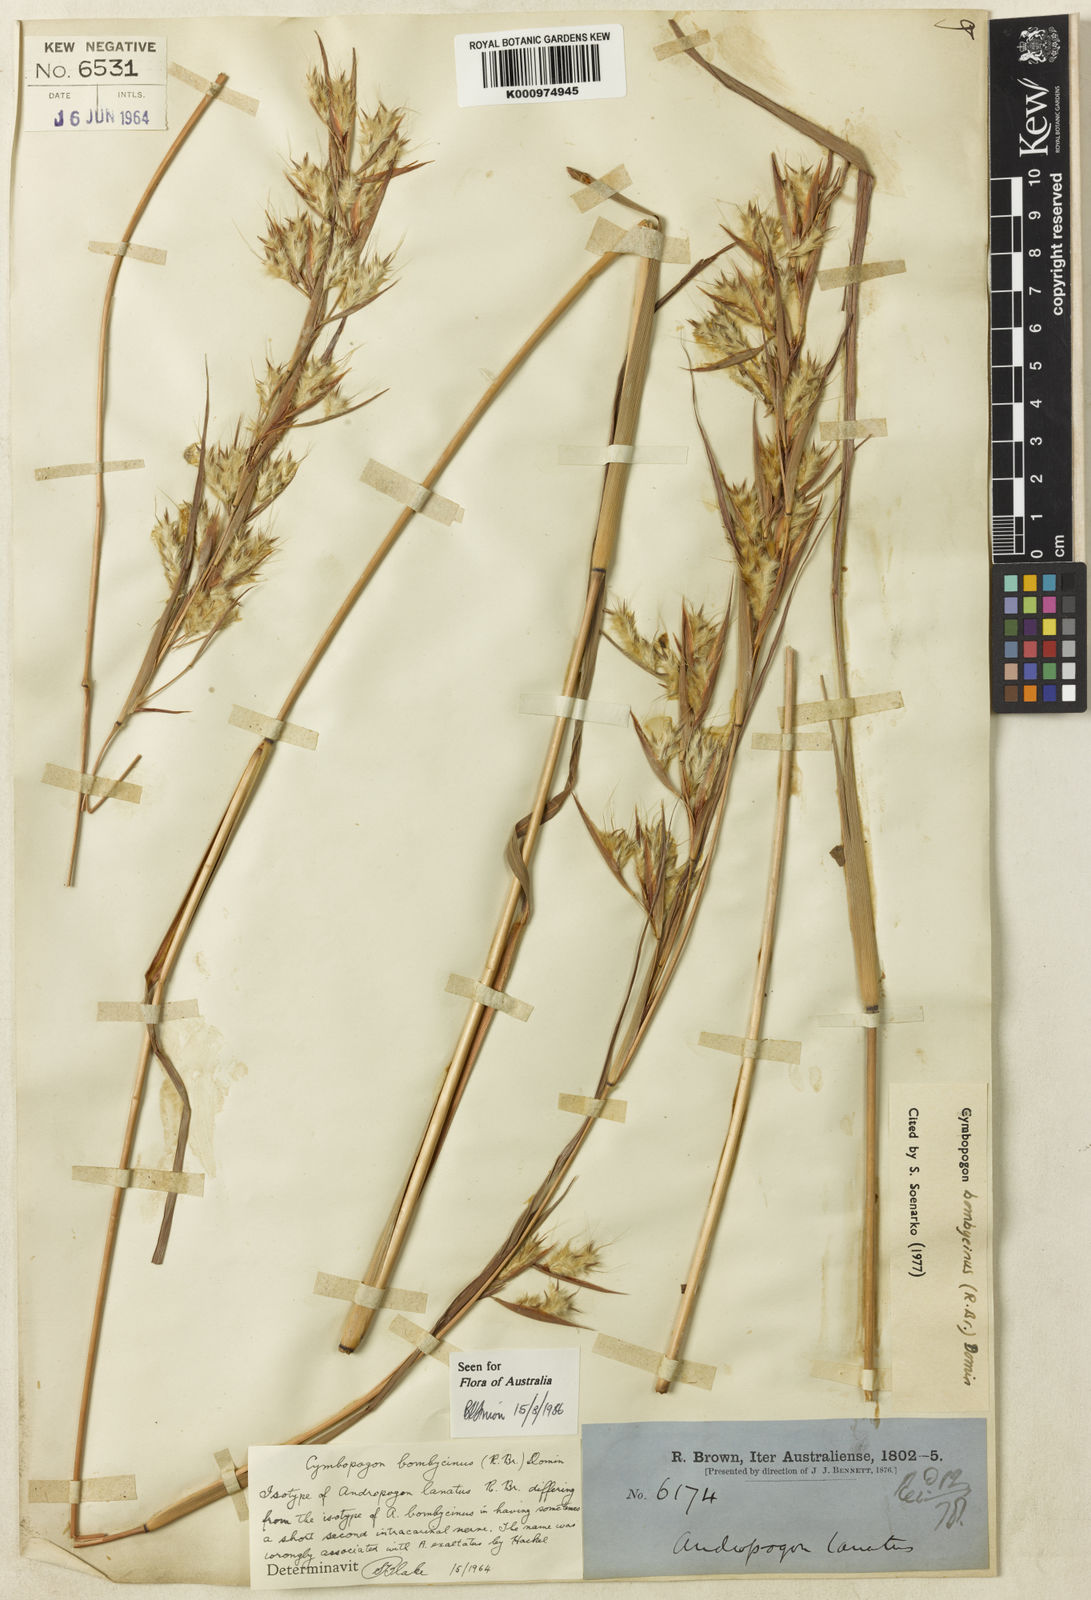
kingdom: Plantae
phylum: Tracheophyta
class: Liliopsida
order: Poales
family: Poaceae
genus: Cymbopogon
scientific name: Cymbopogon bombycinus
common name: Citronella grass
